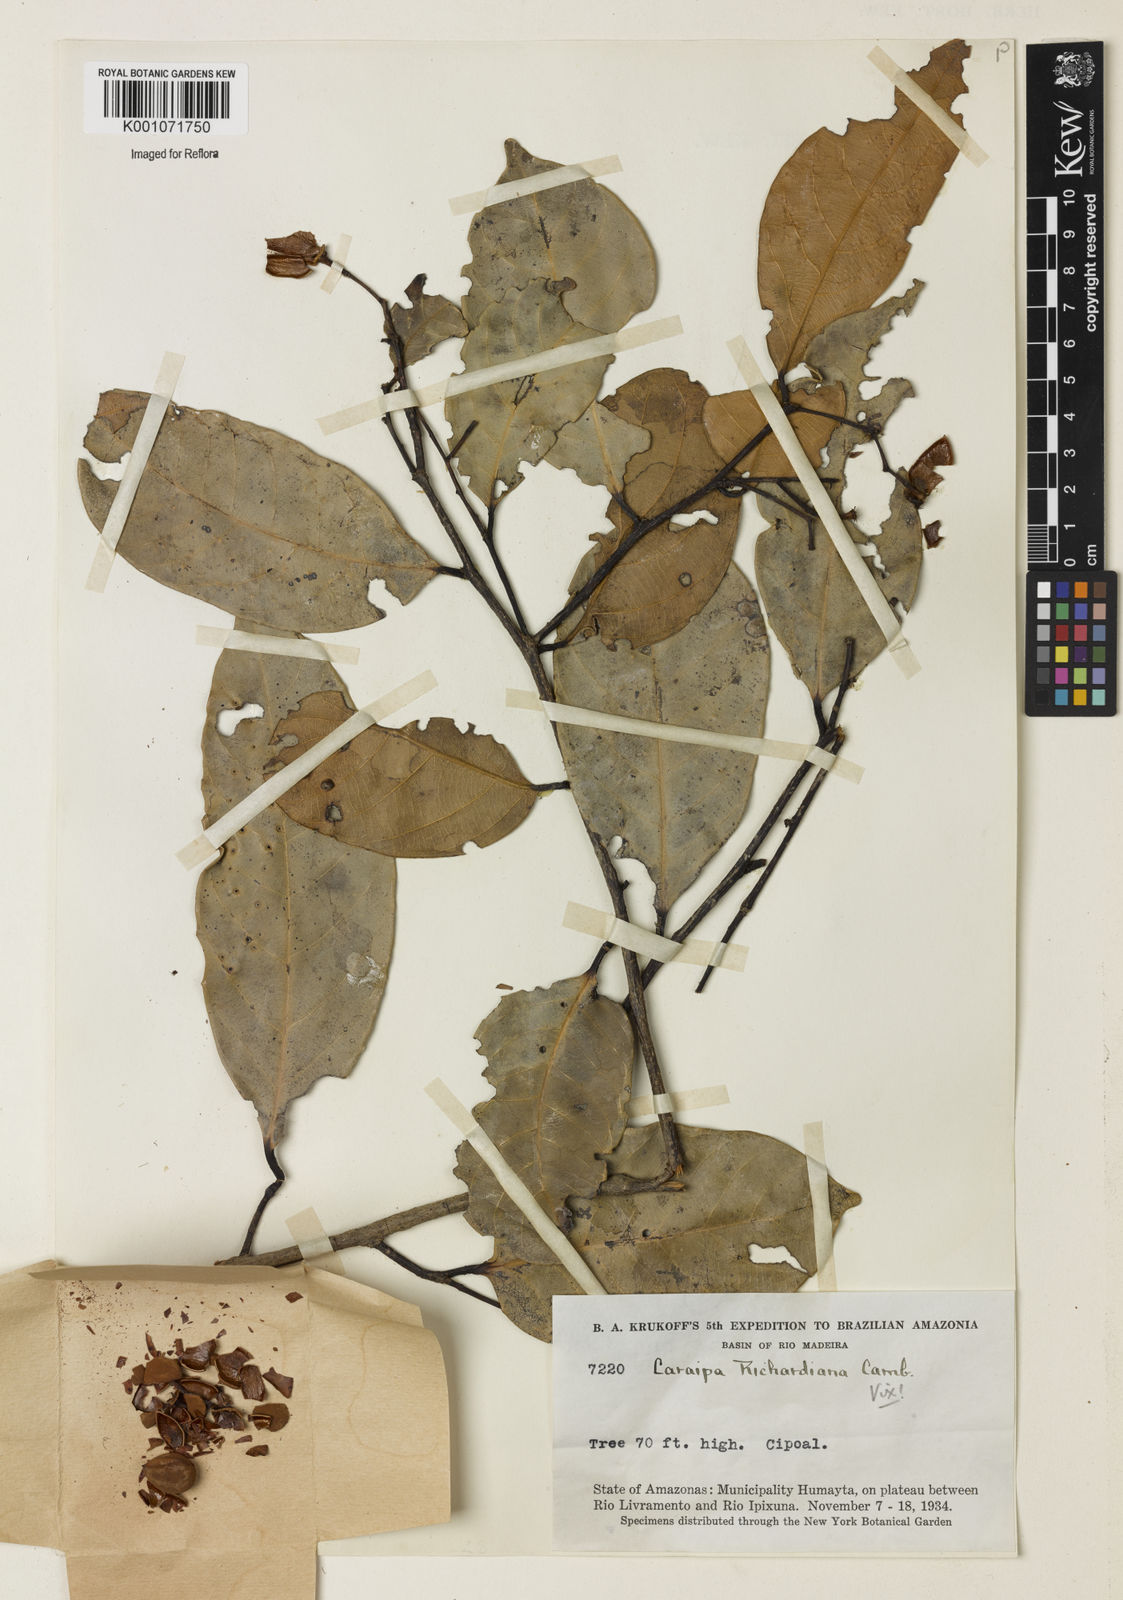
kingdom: Plantae
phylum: Tracheophyta
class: Magnoliopsida
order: Malpighiales
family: Calophyllaceae
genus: Caraipa
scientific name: Caraipa richardiana
